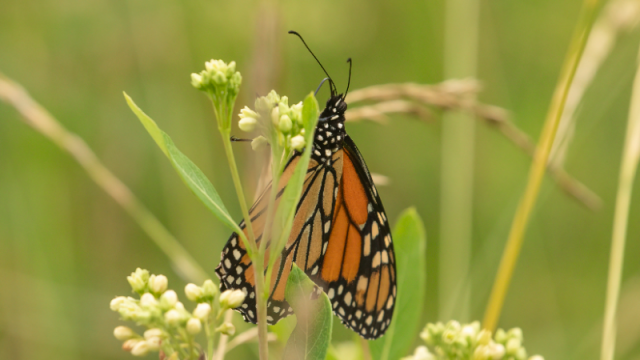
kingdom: Animalia
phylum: Arthropoda
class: Insecta
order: Lepidoptera
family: Nymphalidae
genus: Danaus
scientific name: Danaus plexippus
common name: Monarch
